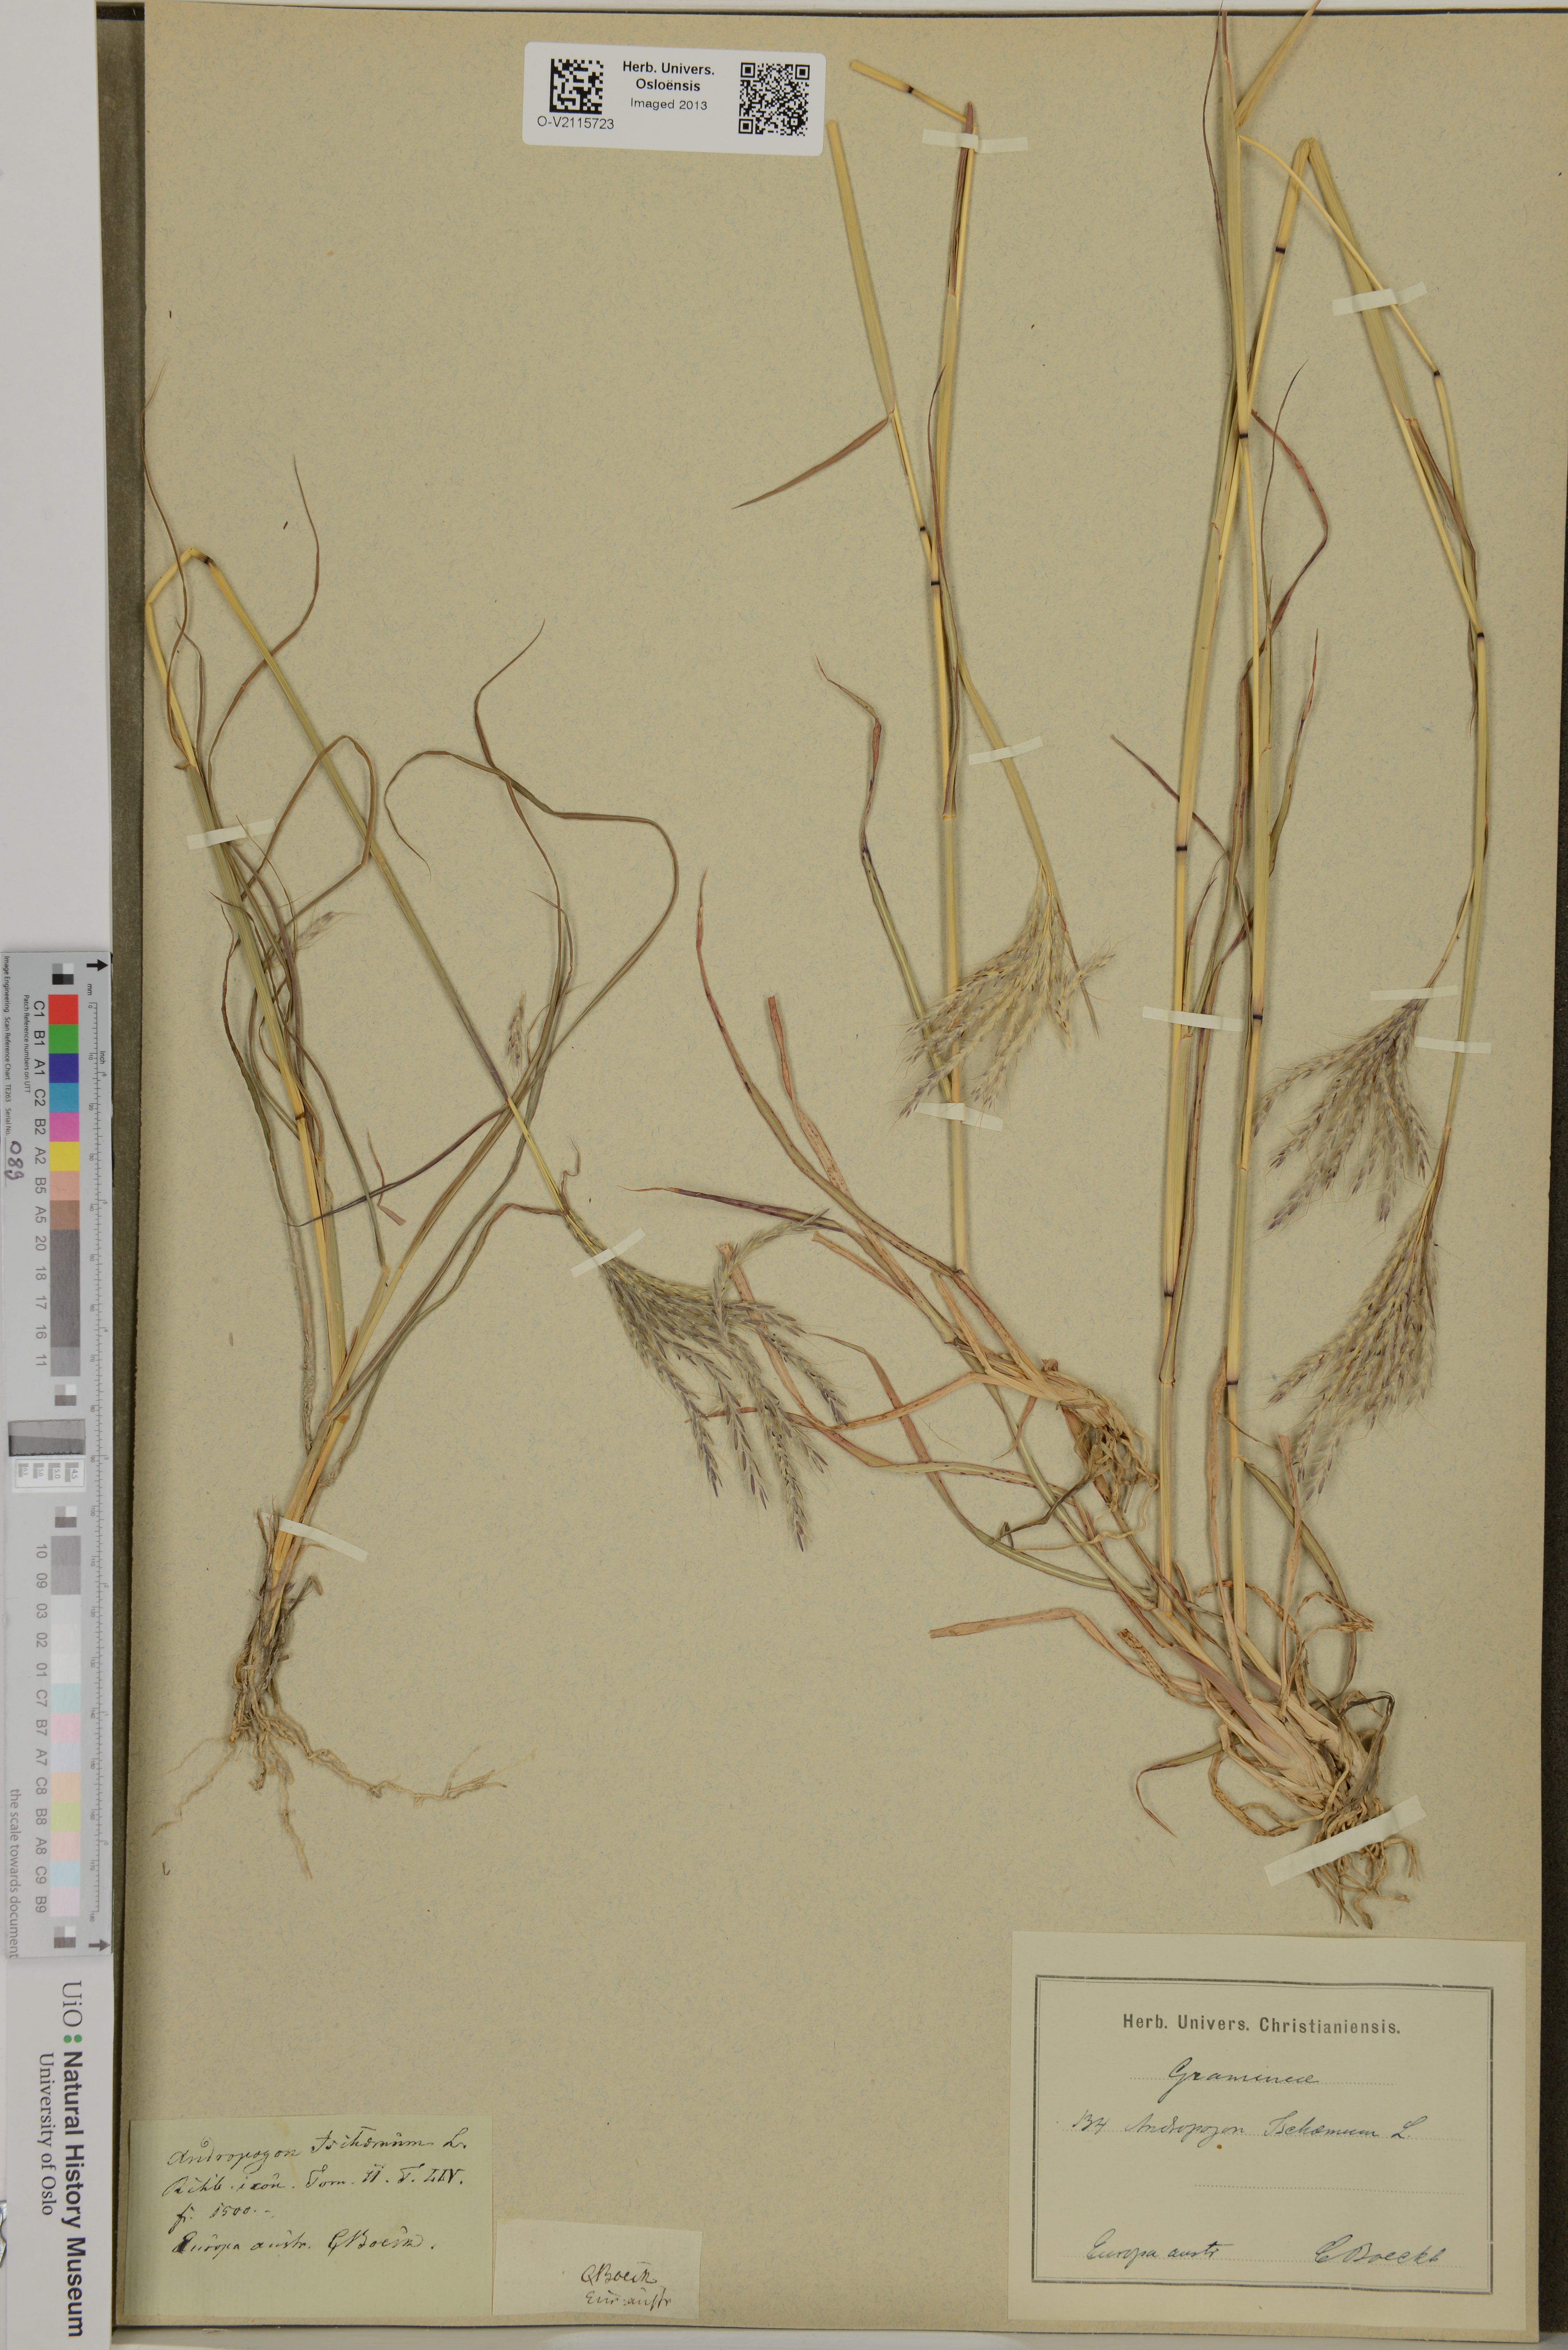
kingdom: Plantae
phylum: Tracheophyta
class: Liliopsida
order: Poales
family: Poaceae
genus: Andropogon
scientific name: Andropogon ischaemum
